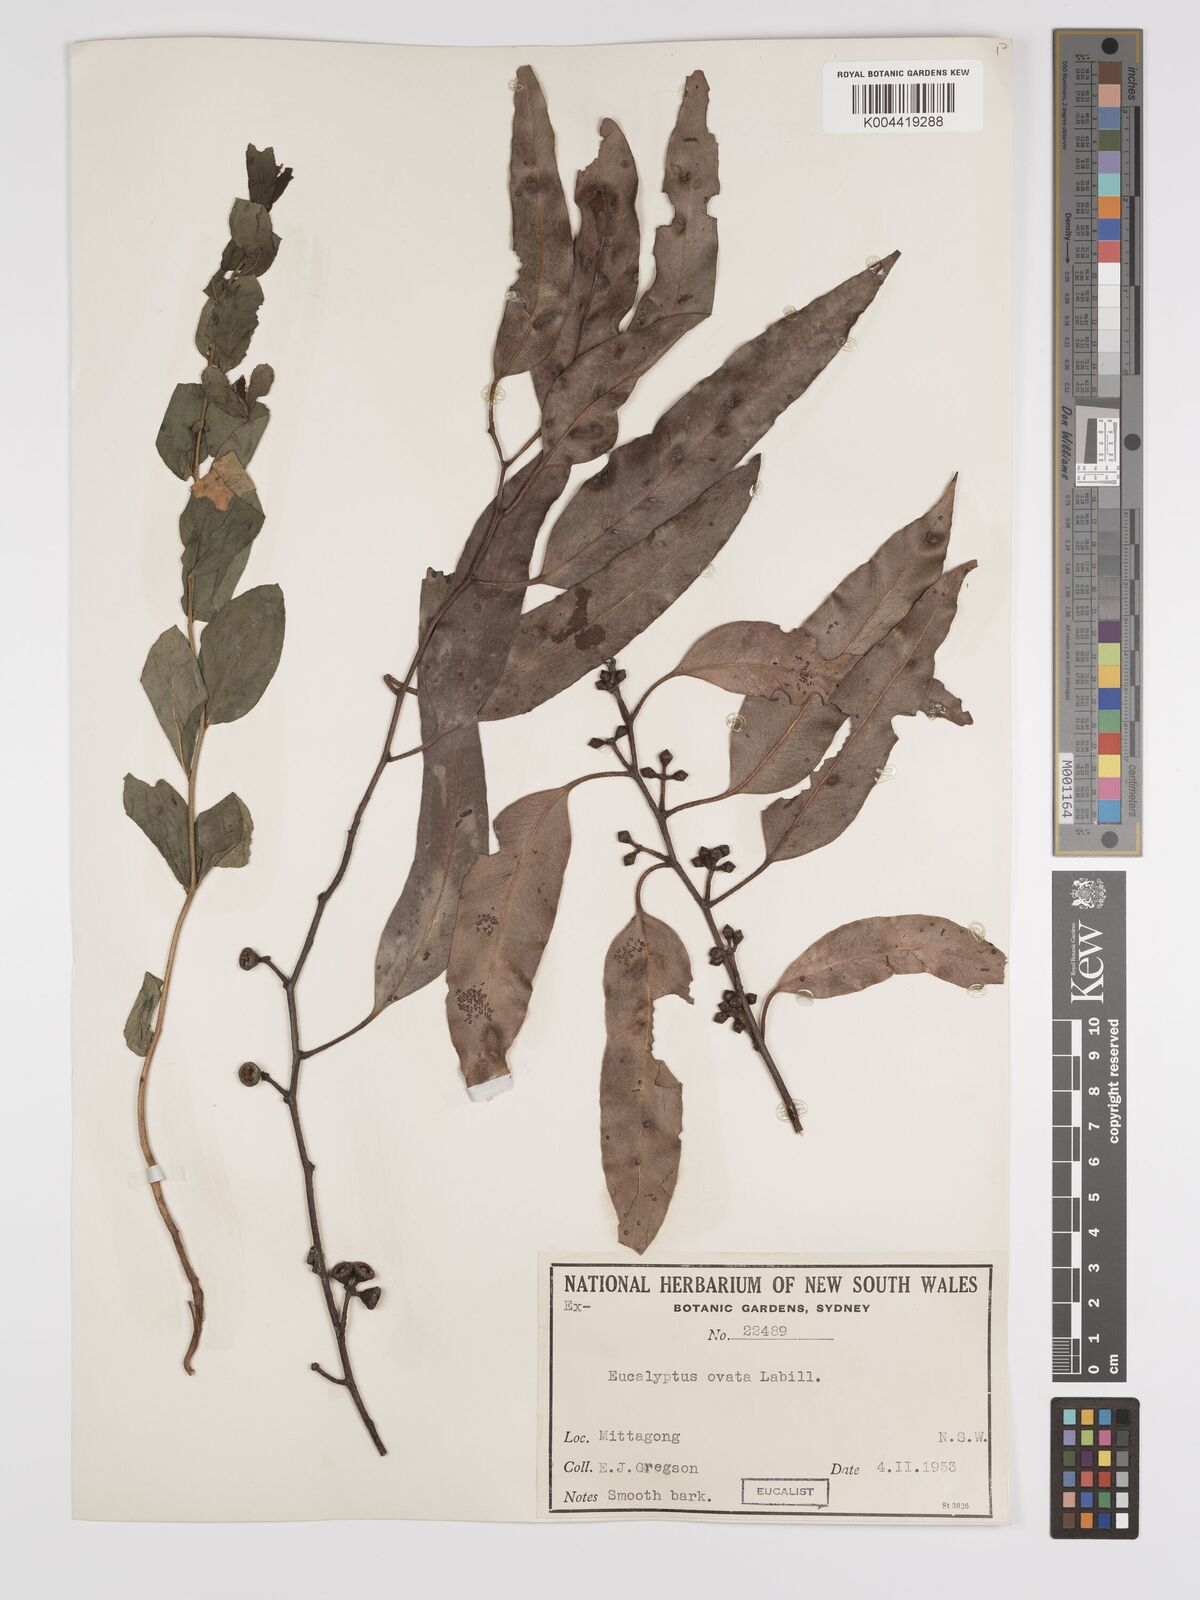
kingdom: Plantae
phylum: Tracheophyta
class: Magnoliopsida
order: Myrtales
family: Myrtaceae
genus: Eucalyptus
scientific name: Eucalyptus ovata
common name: Black-gum
